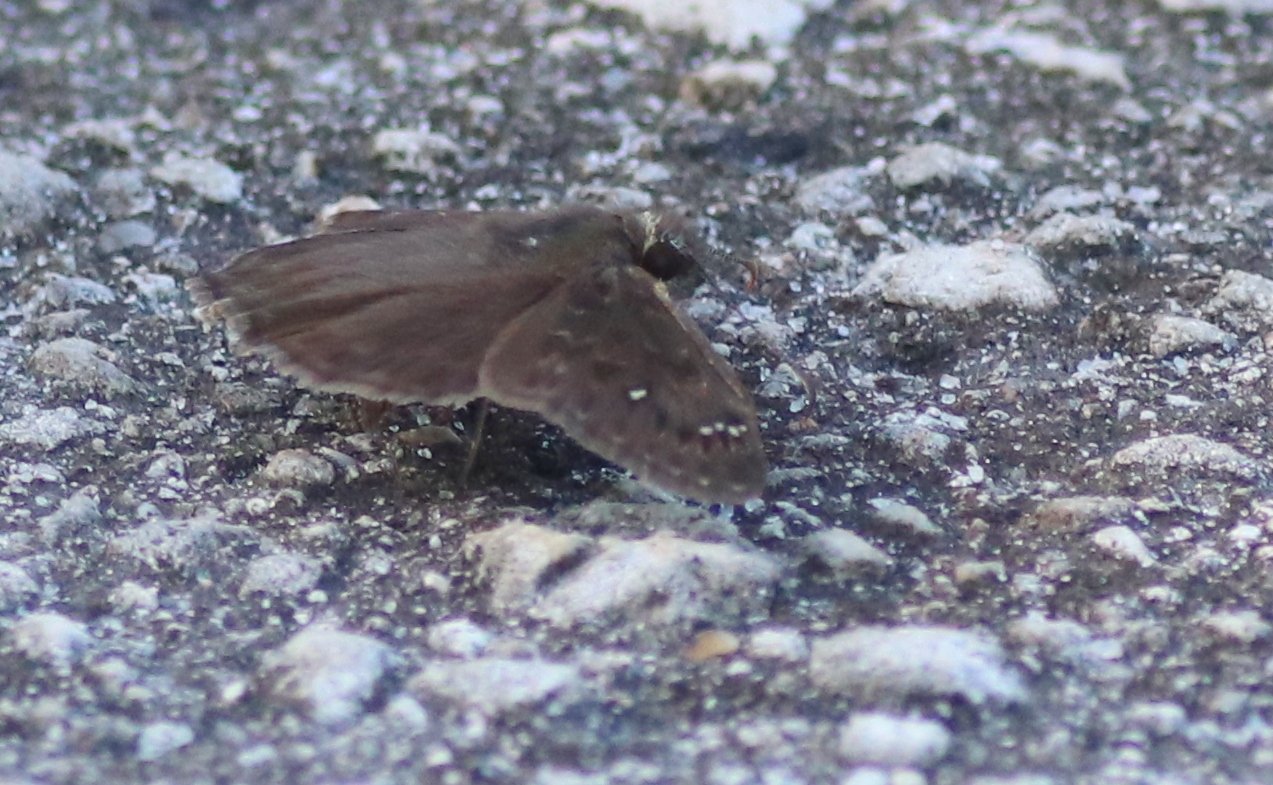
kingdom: Animalia
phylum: Arthropoda
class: Insecta
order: Lepidoptera
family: Hesperiidae
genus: Autochton
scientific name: Autochton
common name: Northern Cloudywing
